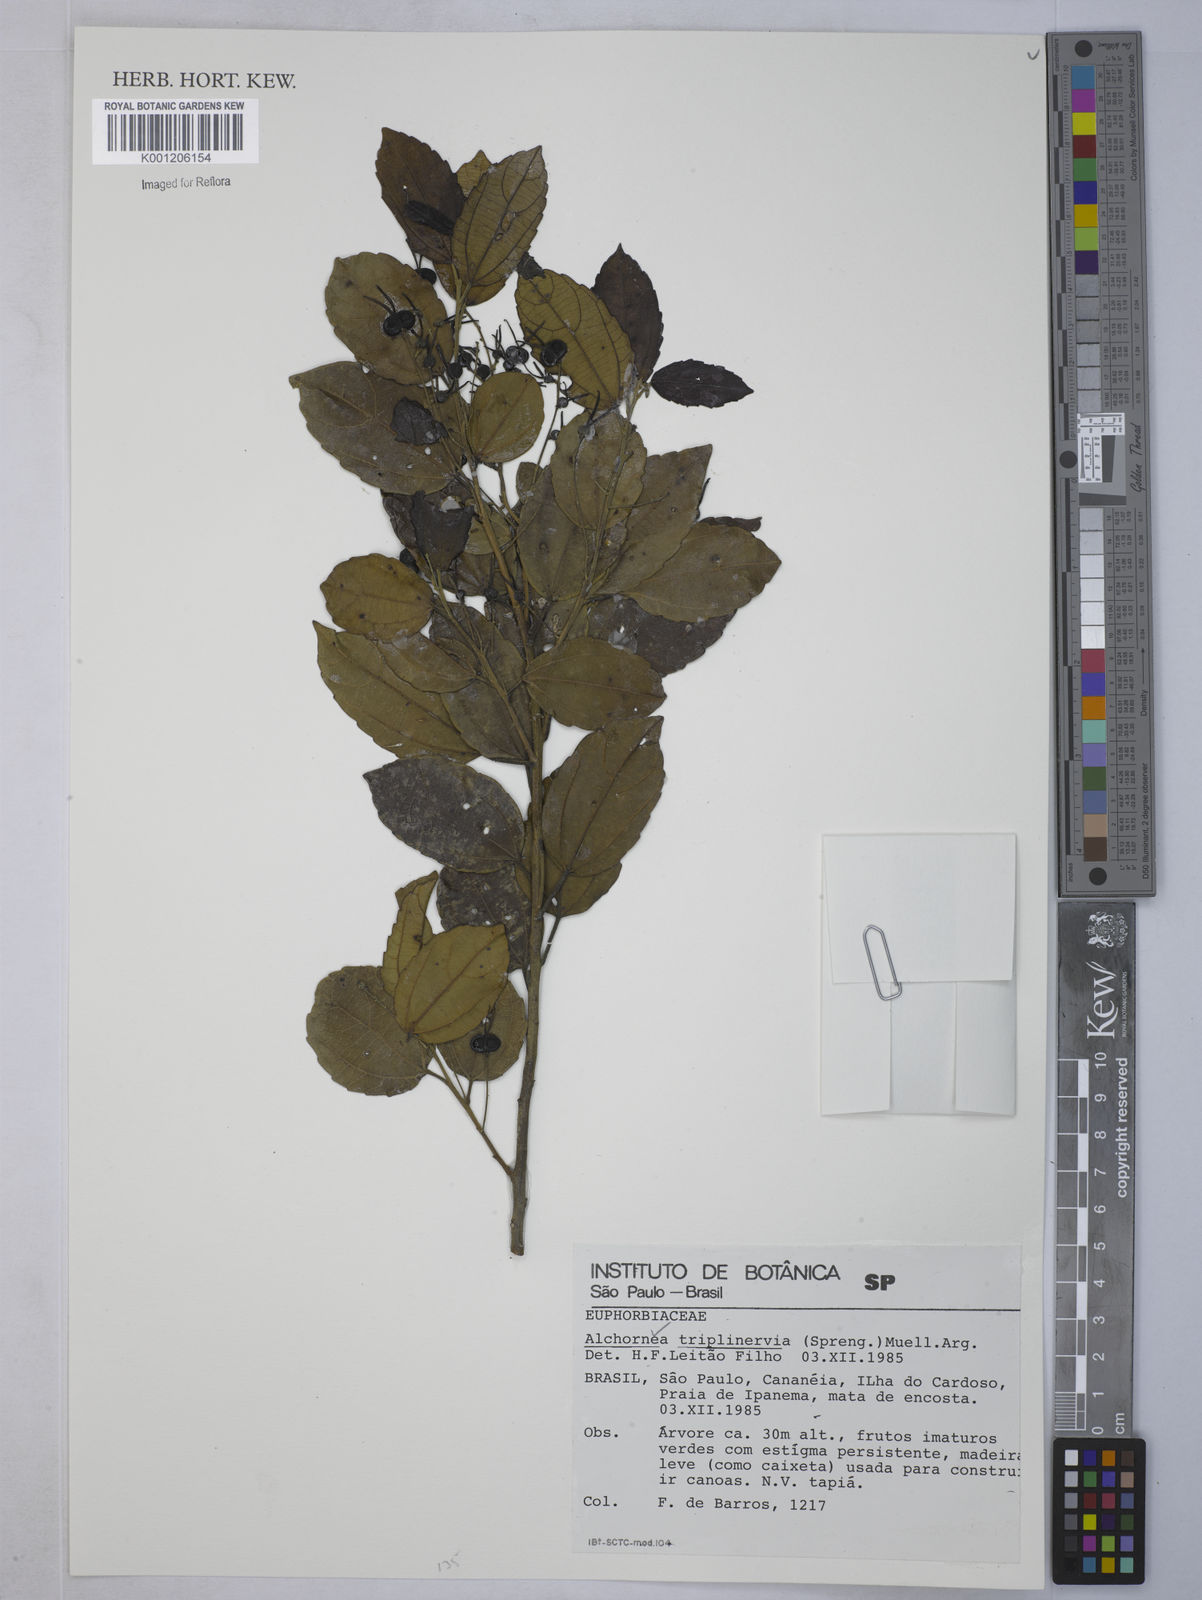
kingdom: Plantae
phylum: Tracheophyta
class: Magnoliopsida
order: Malpighiales
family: Euphorbiaceae
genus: Alchornea
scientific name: Alchornea
